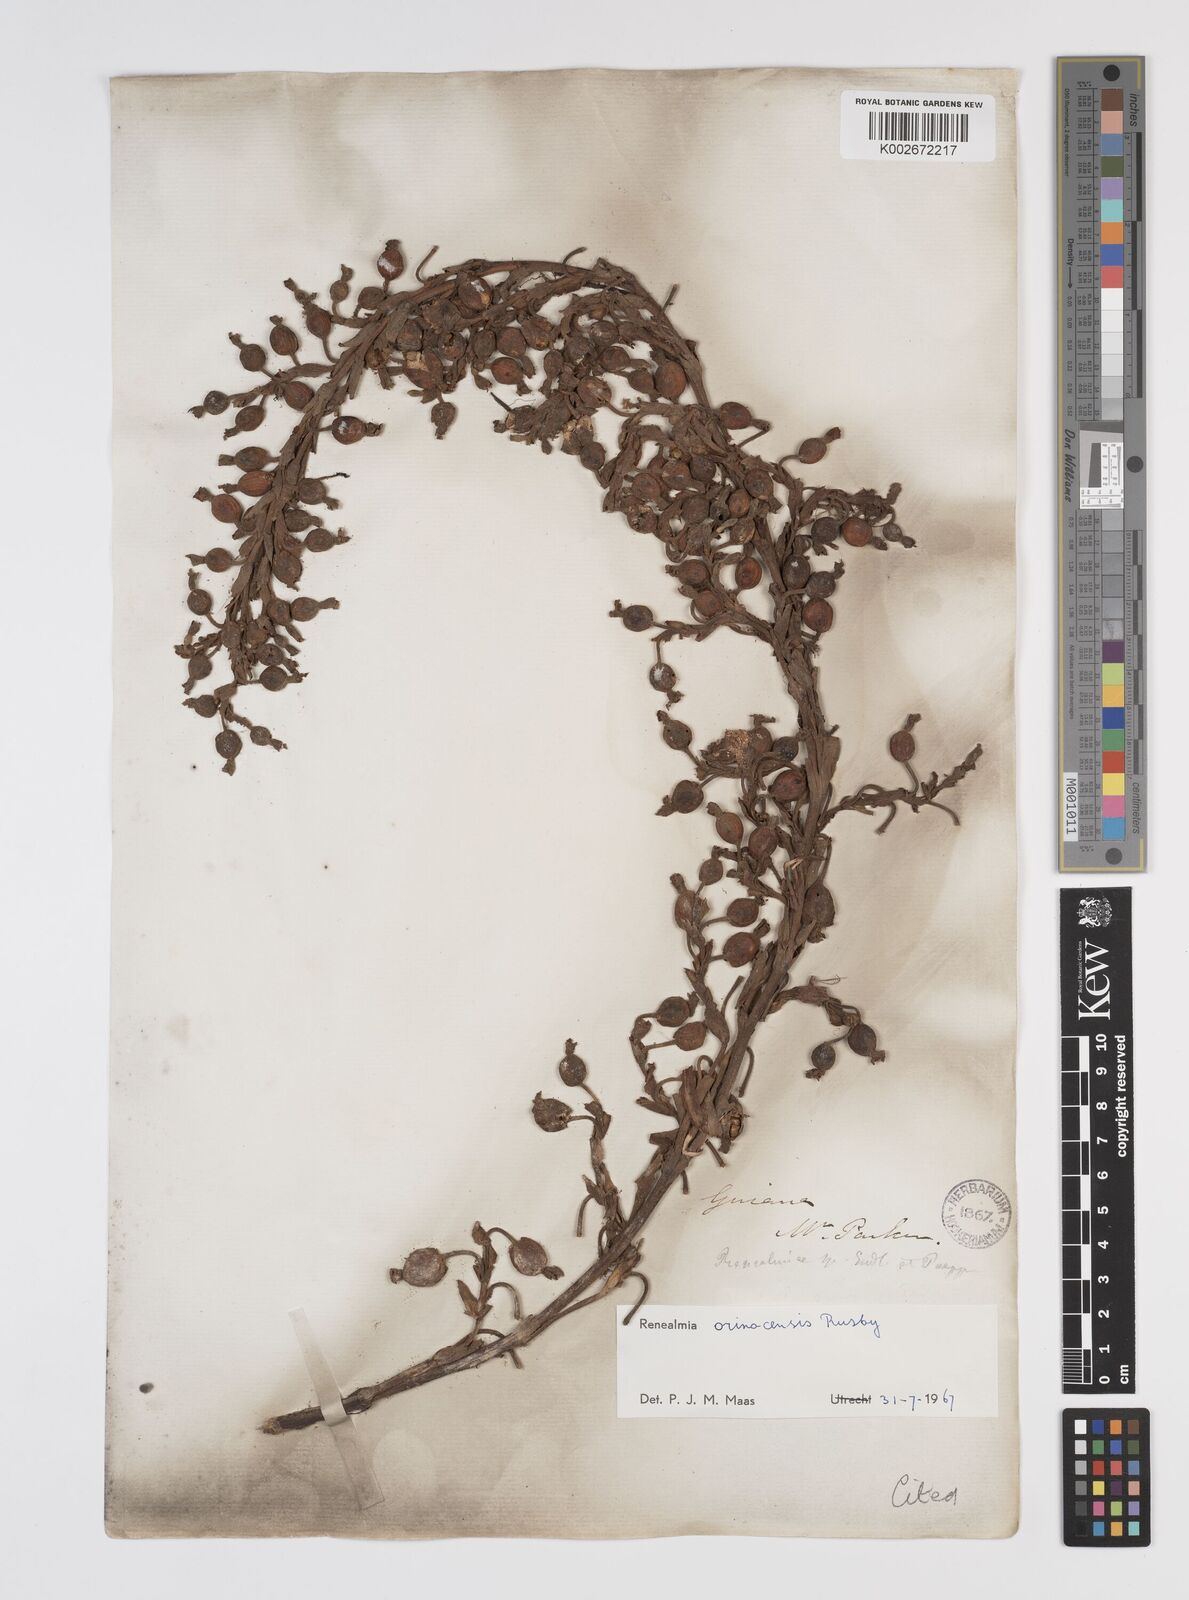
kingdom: Plantae
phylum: Tracheophyta
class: Liliopsida
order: Zingiberales
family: Zingiberaceae
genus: Renealmia
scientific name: Renealmia orinocensis
